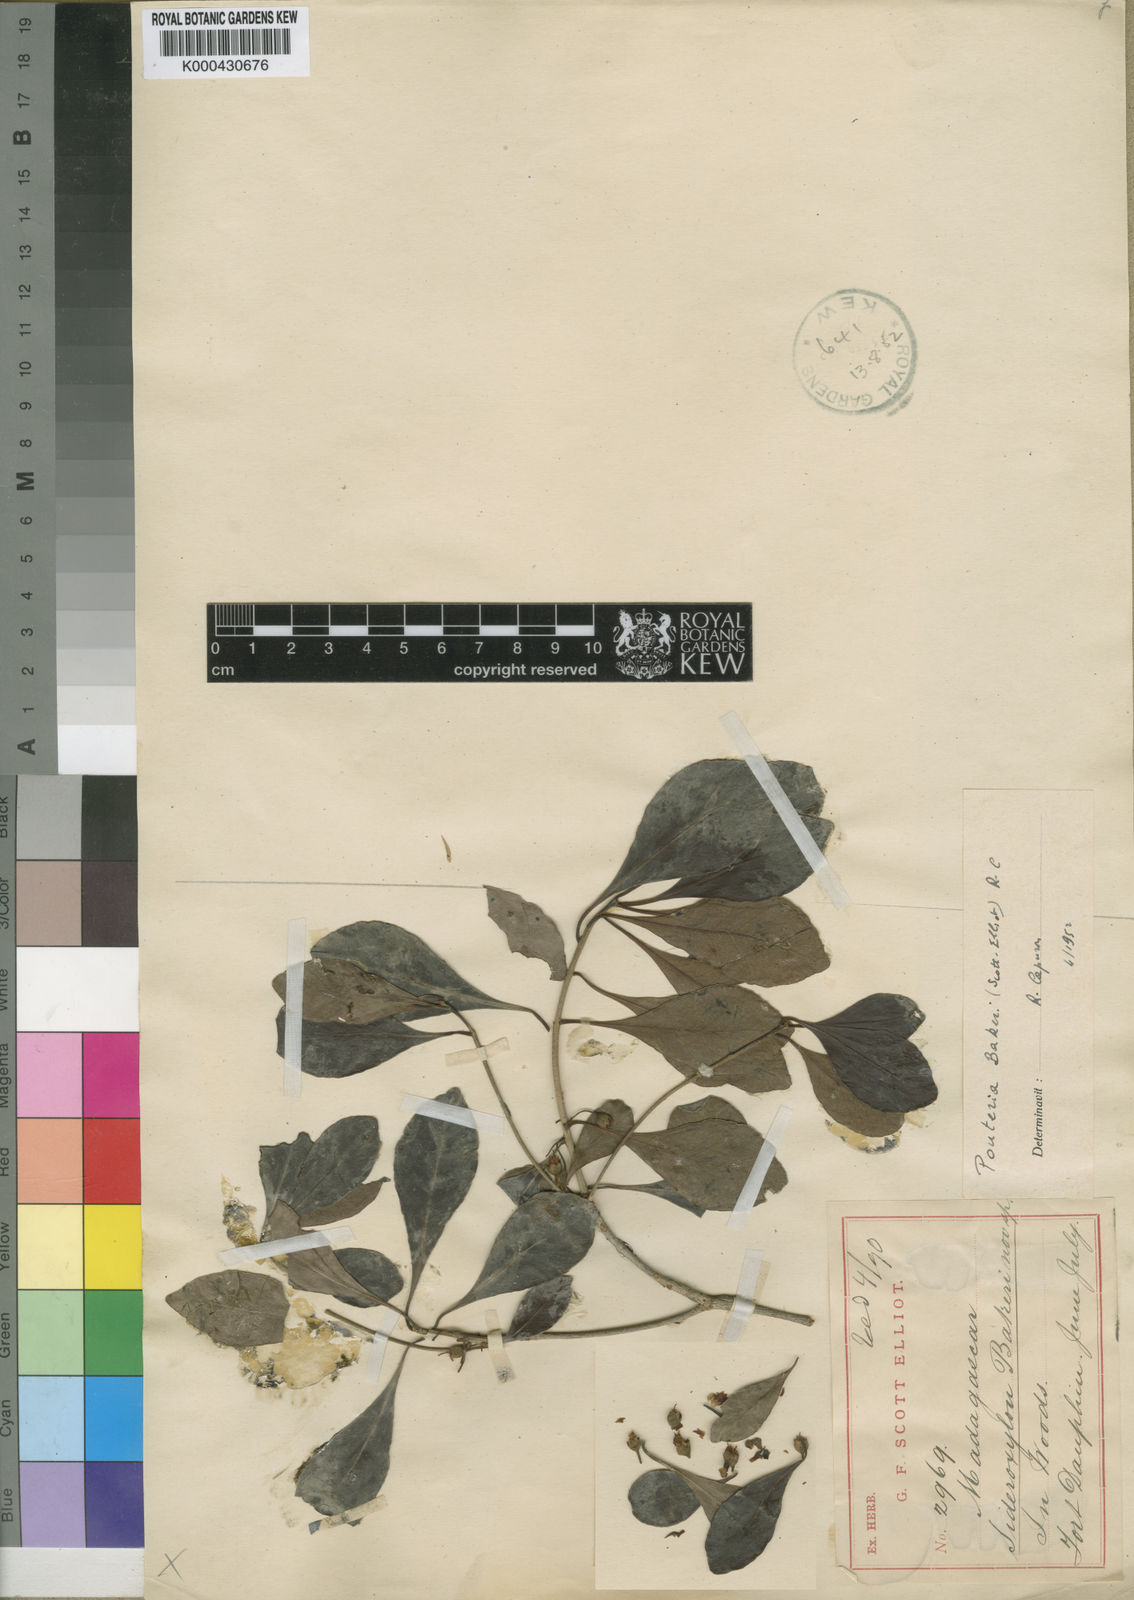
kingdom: Plantae
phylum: Tracheophyta
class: Magnoliopsida
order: Ericales
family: Sapotaceae
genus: Capurodendron
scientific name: Capurodendron
